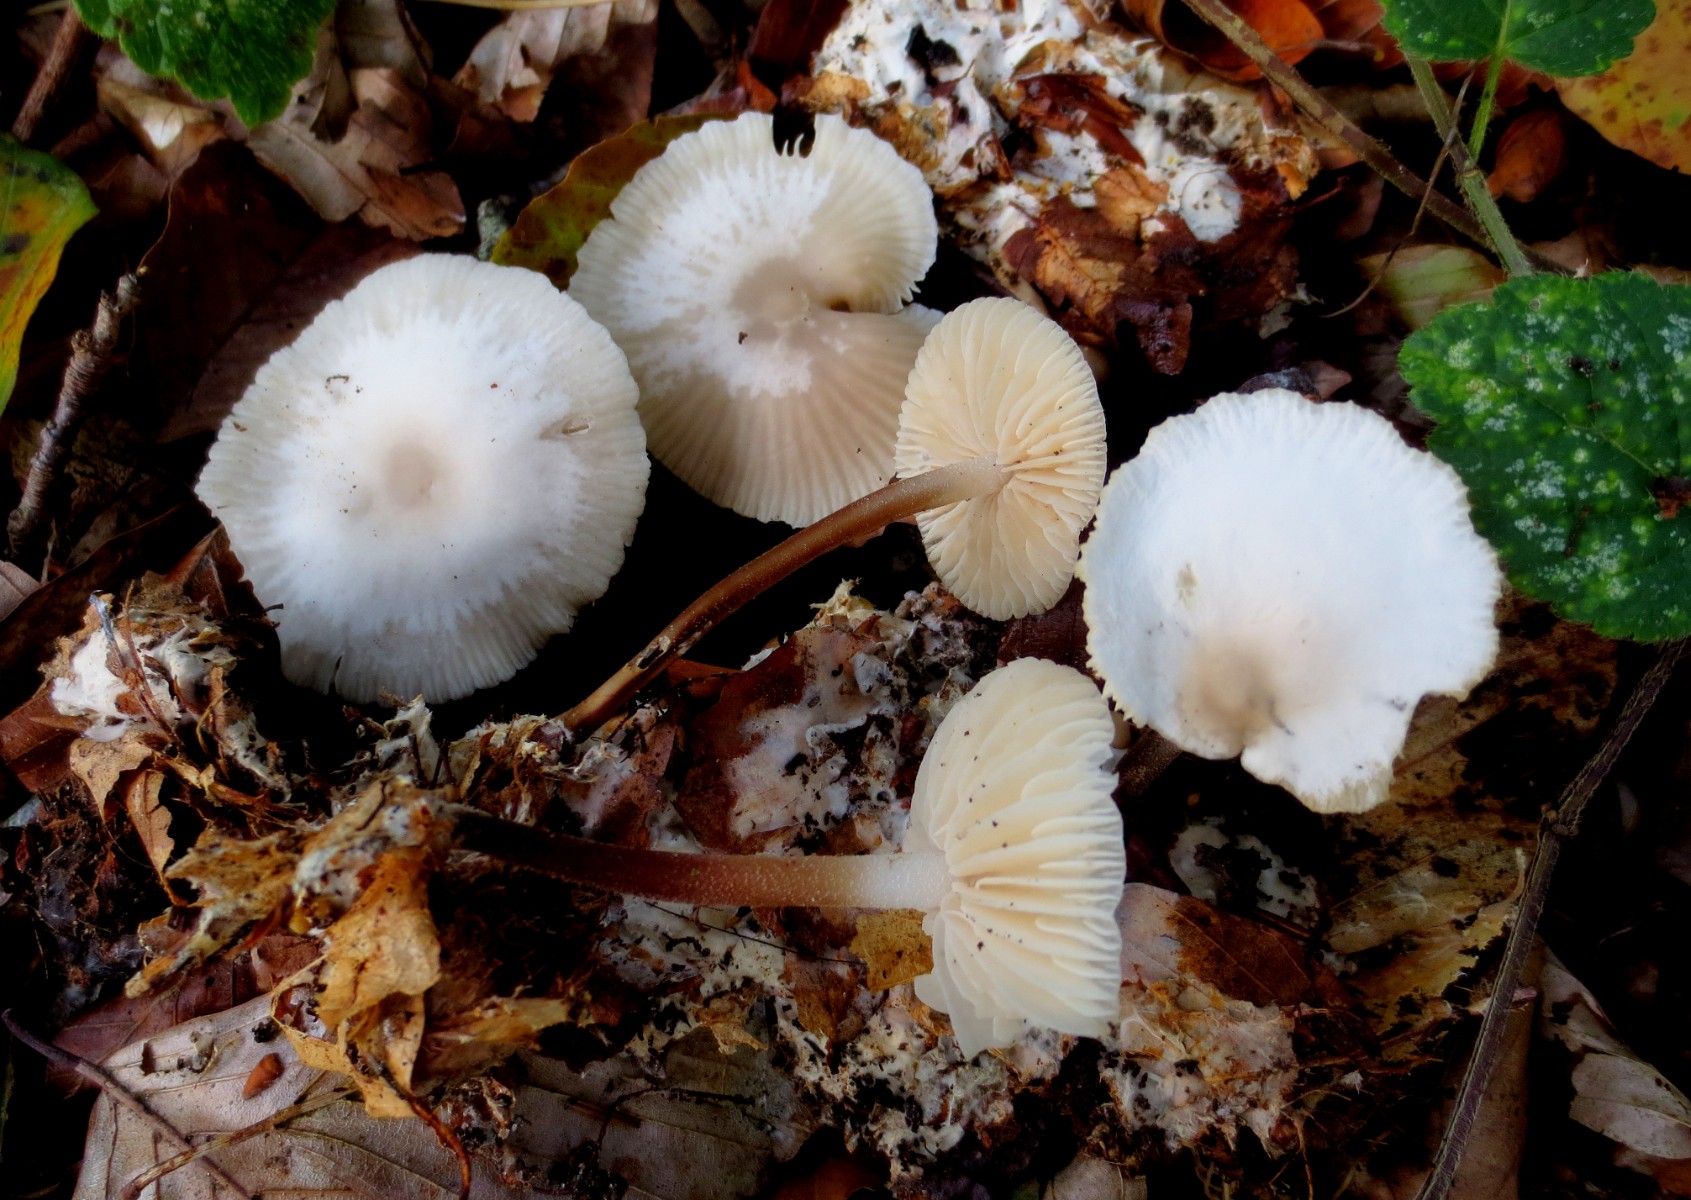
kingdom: Fungi
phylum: Basidiomycota
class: Agaricomycetes
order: Agaricales
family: Marasmiaceae
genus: Marasmius
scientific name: Marasmius wynneae
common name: hvælvet bruskhat
